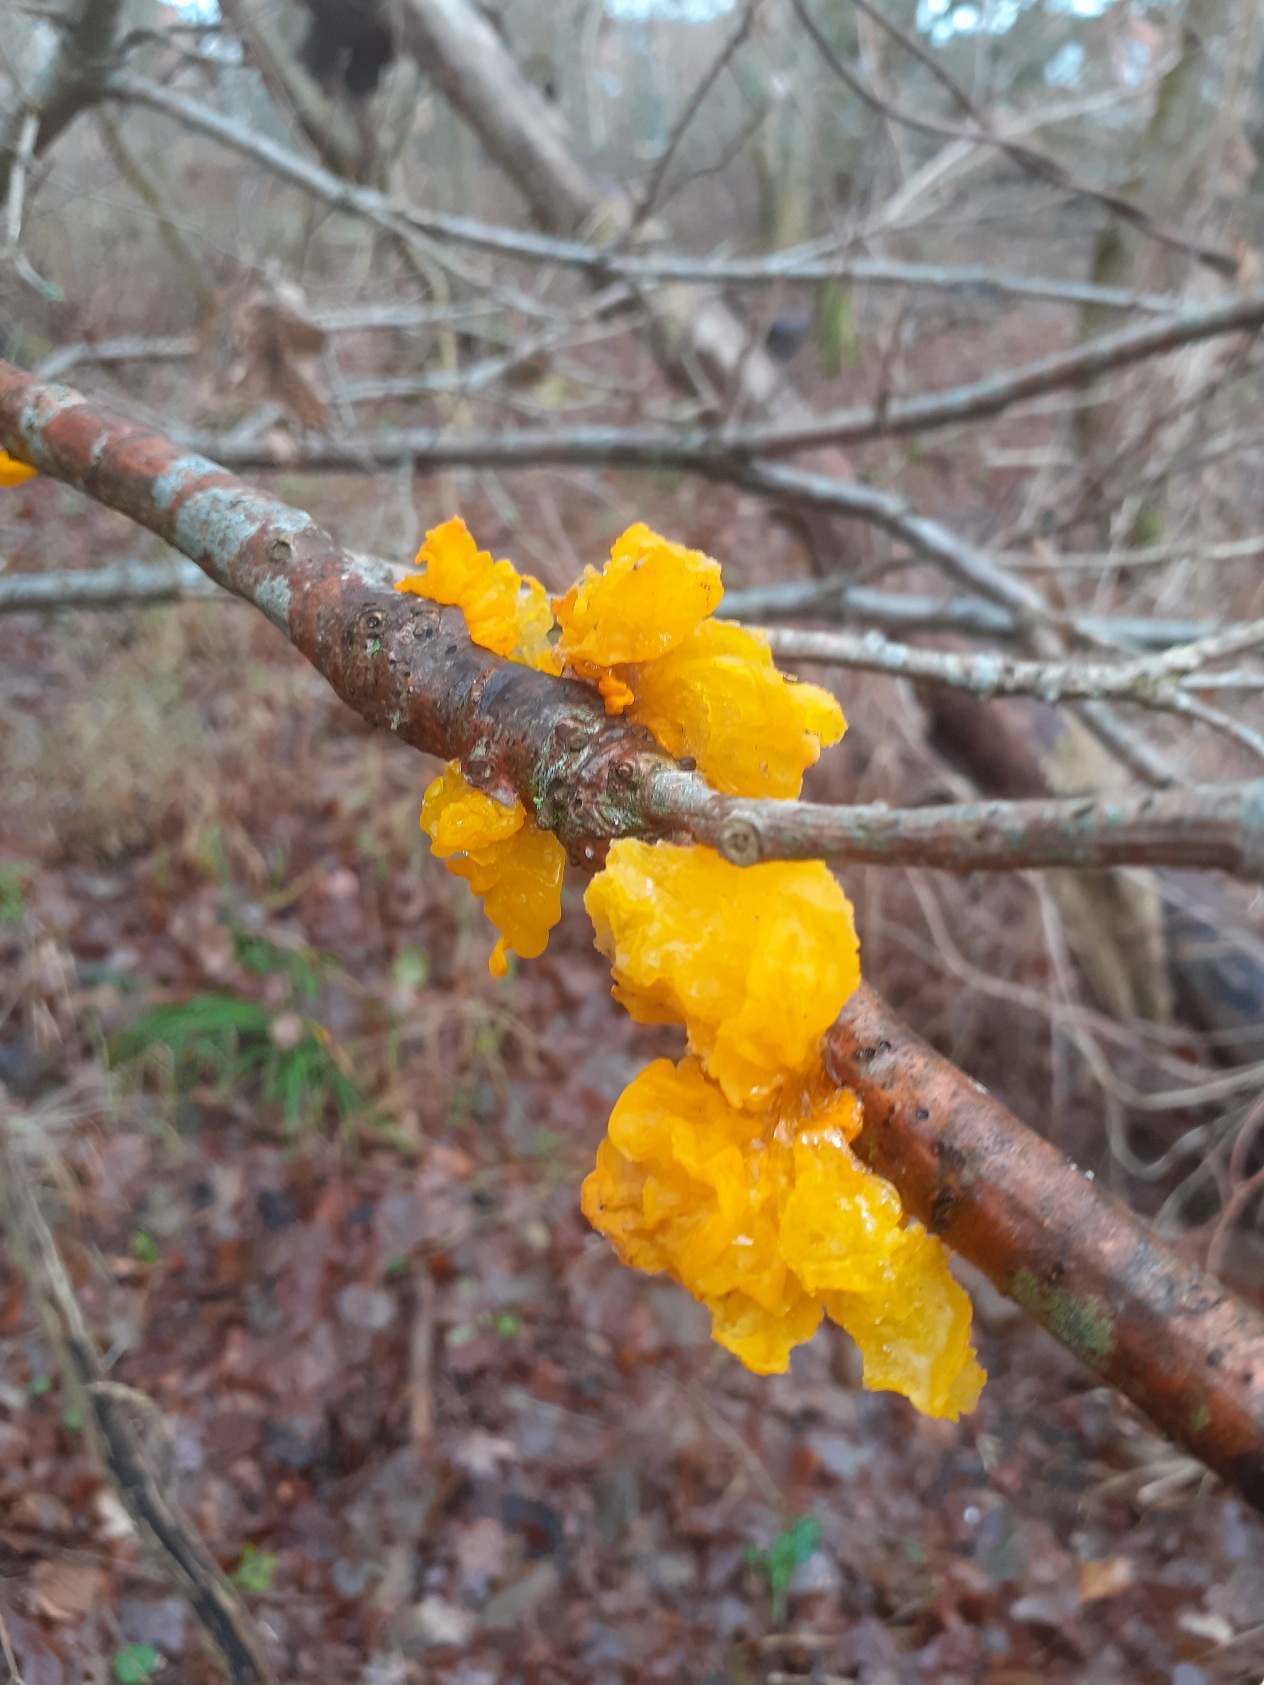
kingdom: Fungi
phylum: Basidiomycota
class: Tremellomycetes
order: Tremellales
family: Tremellaceae
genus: Tremella
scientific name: Tremella mesenterica
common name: Gul bævresvamp
